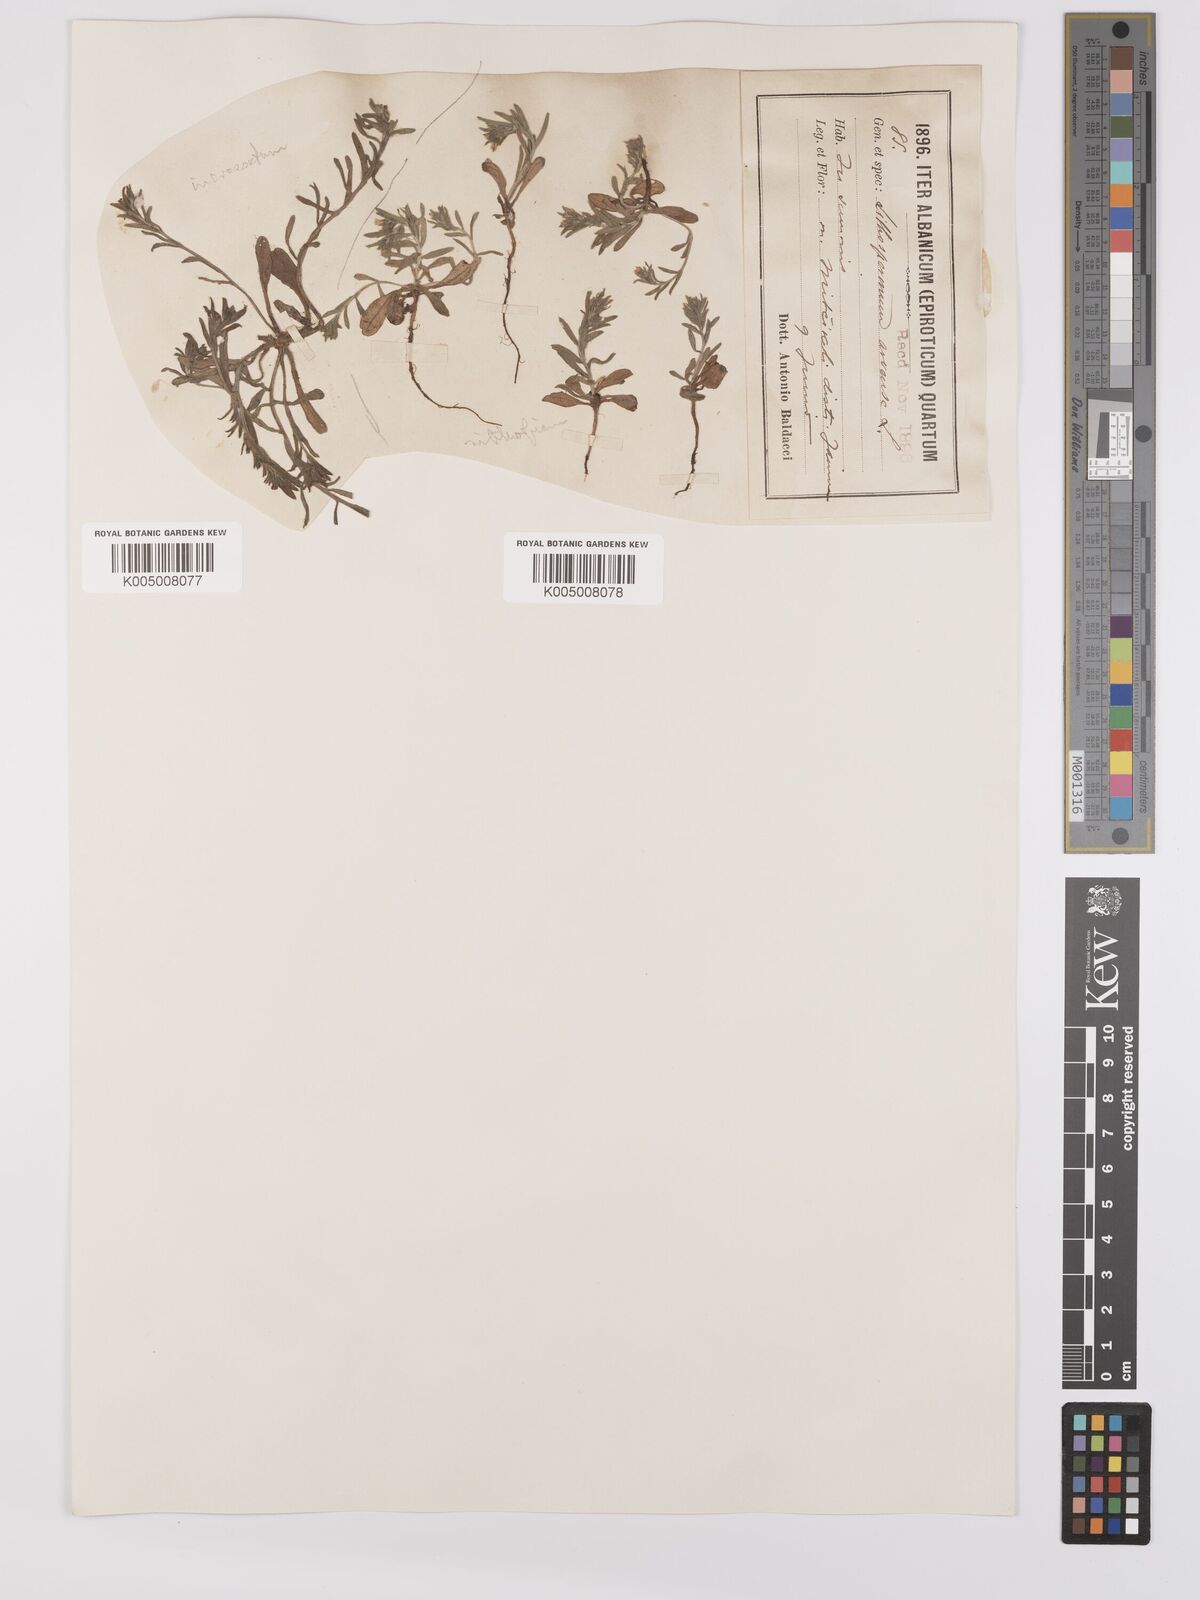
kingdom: Plantae
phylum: Tracheophyta
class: Magnoliopsida
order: Boraginales
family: Boraginaceae
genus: Buglossoides
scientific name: Buglossoides incrassata
